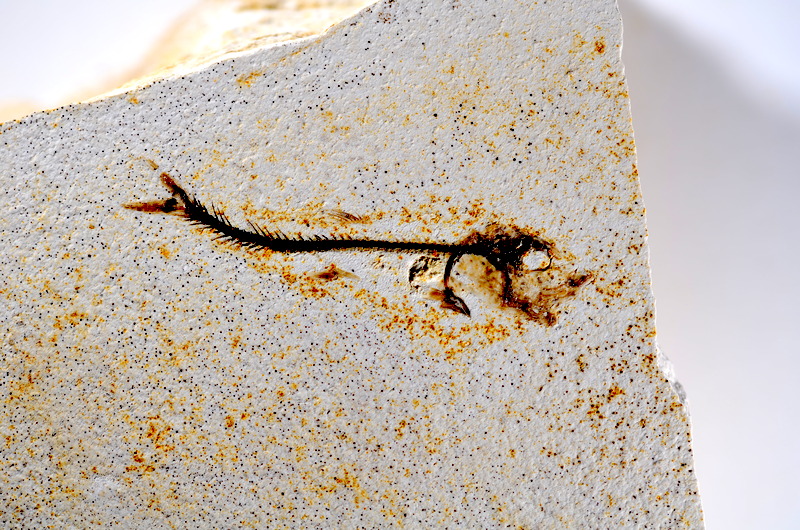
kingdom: Animalia
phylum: Chordata
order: Salmoniformes
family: Orthogonikleithridae
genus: Orthogonikleithrus
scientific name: Orthogonikleithrus hoelli
